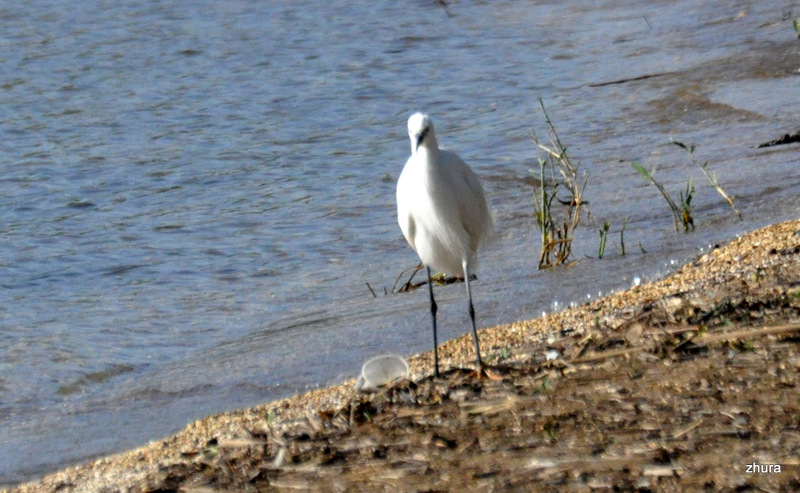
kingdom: Animalia
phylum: Chordata
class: Aves
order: Pelecaniformes
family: Ardeidae
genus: Egretta
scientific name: Egretta garzetta
